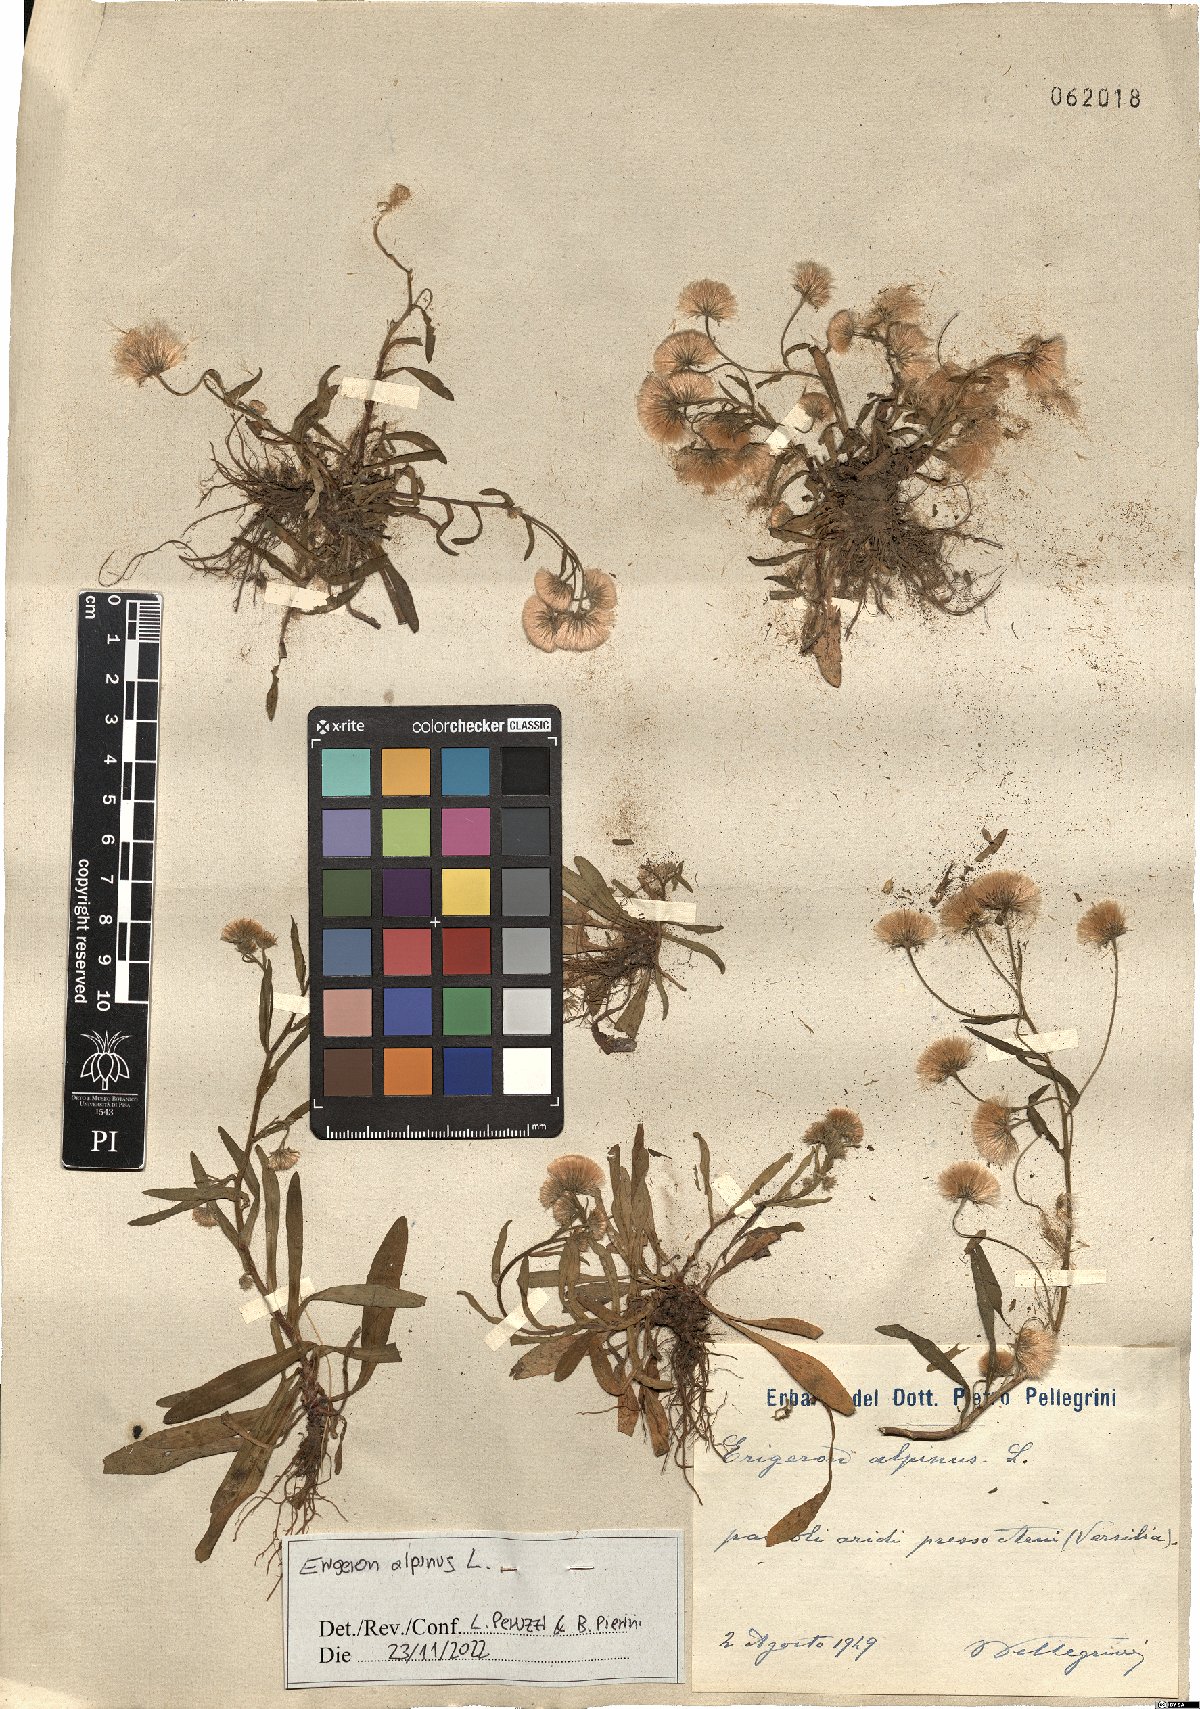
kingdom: Plantae
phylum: Tracheophyta
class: Magnoliopsida
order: Asterales
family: Asteraceae
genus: Erigeron
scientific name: Erigeron alpinus
